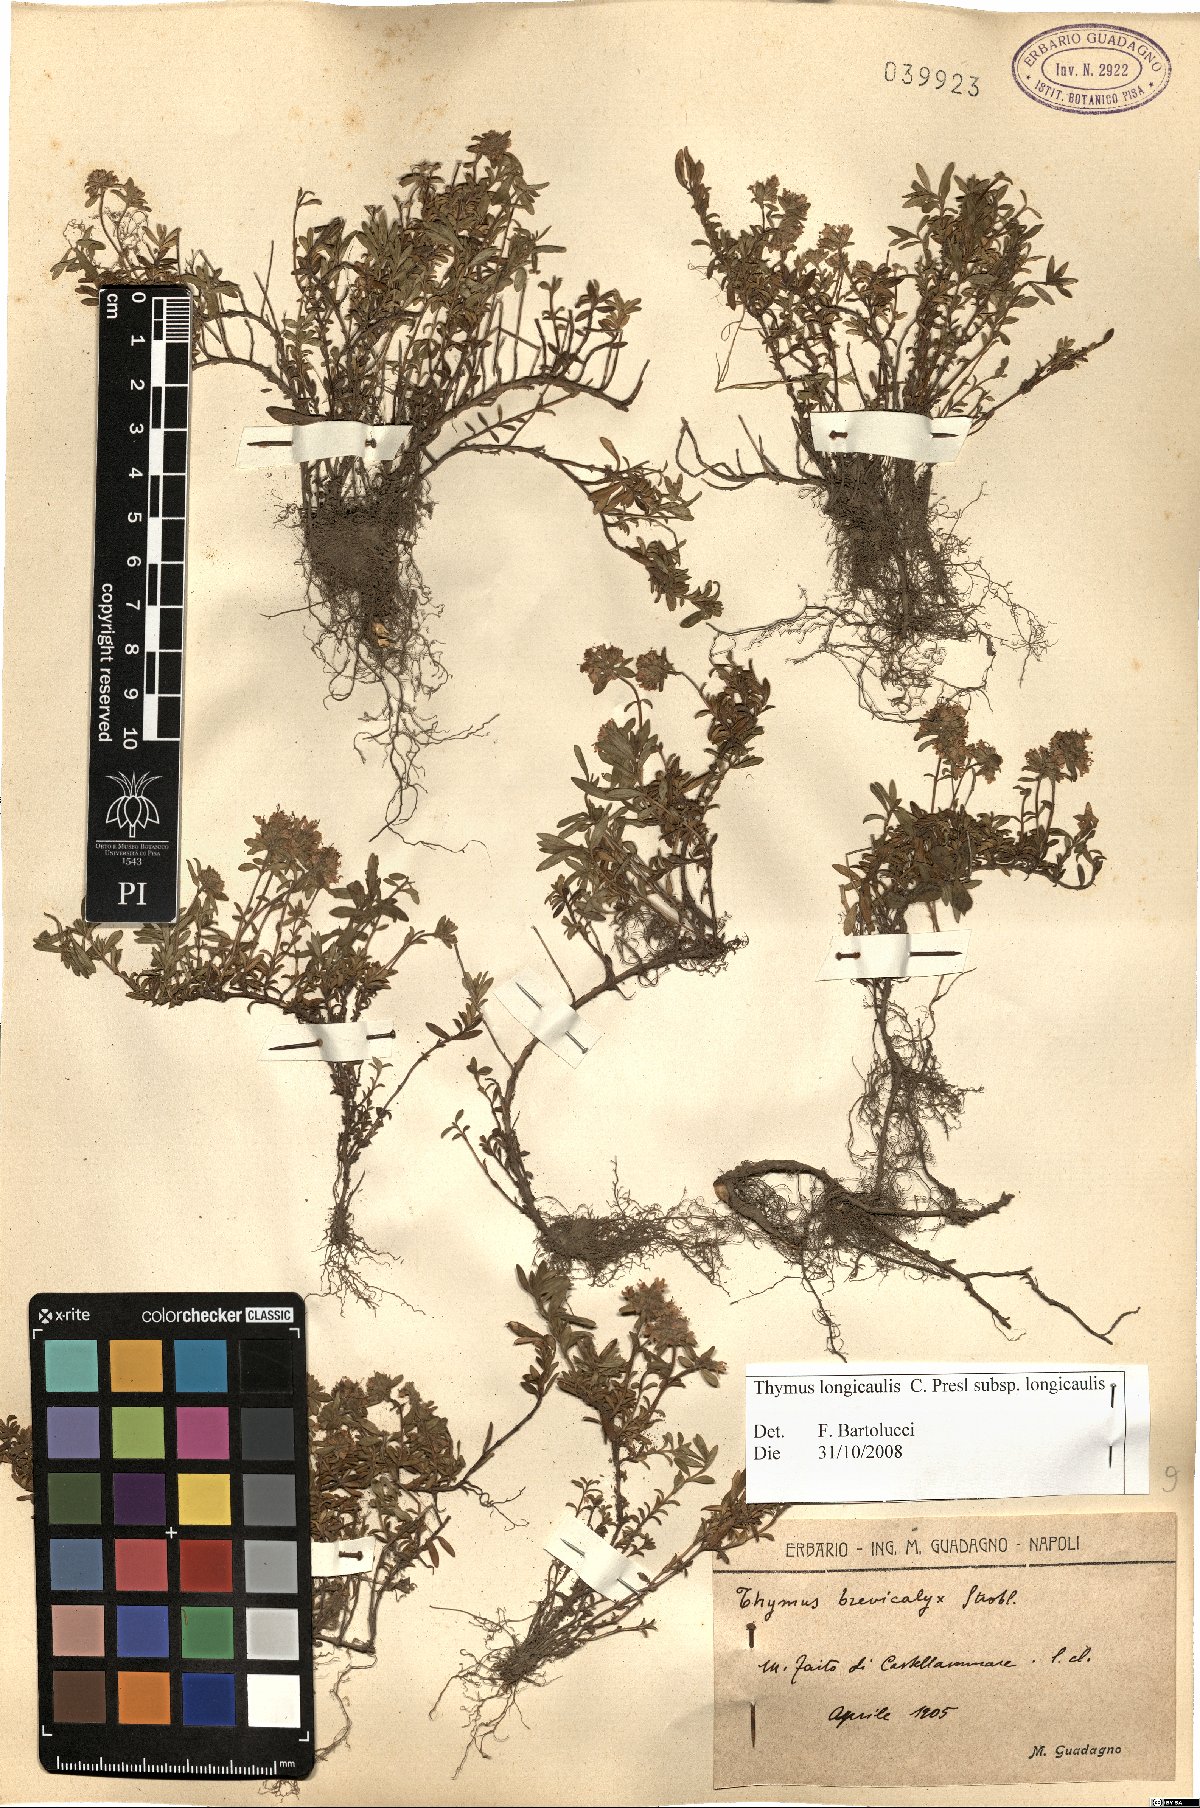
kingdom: Plantae
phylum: Tracheophyta
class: Magnoliopsida
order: Lamiales
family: Lamiaceae
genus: Thymus
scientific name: Thymus longicaulis
